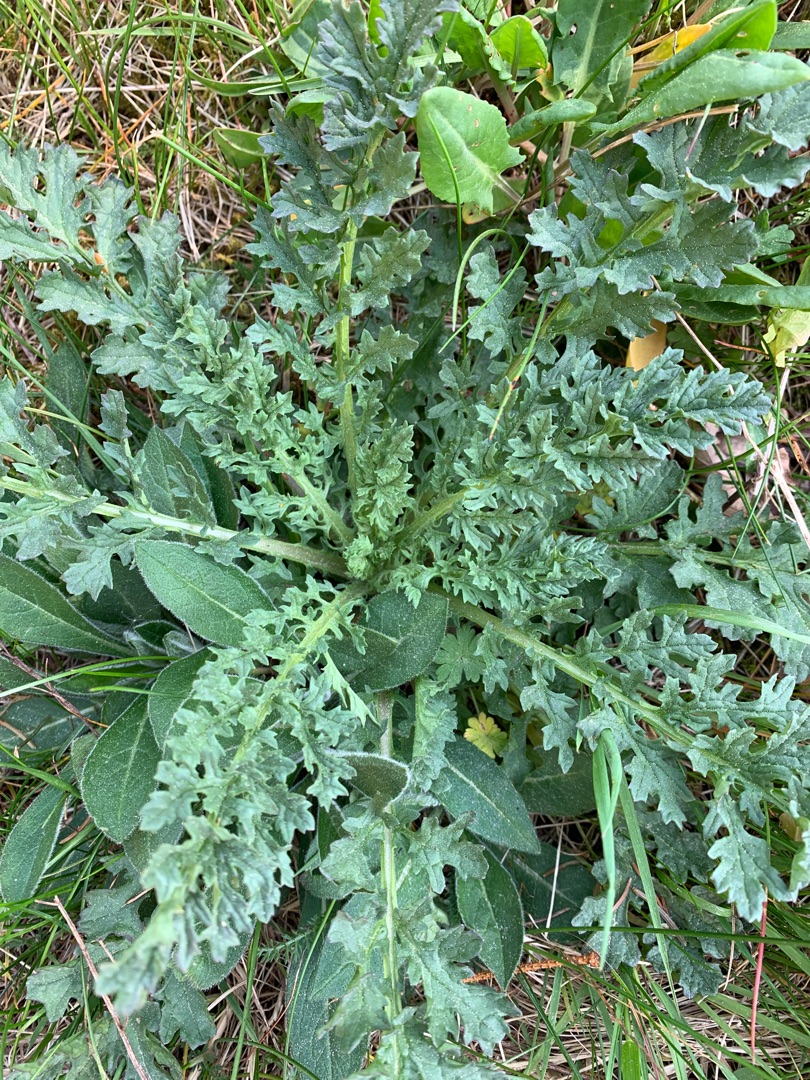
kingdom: Plantae
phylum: Tracheophyta
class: Magnoliopsida
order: Asterales
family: Asteraceae
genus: Jacobaea
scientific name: Jacobaea vulgaris
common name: Eng-brandbæger
